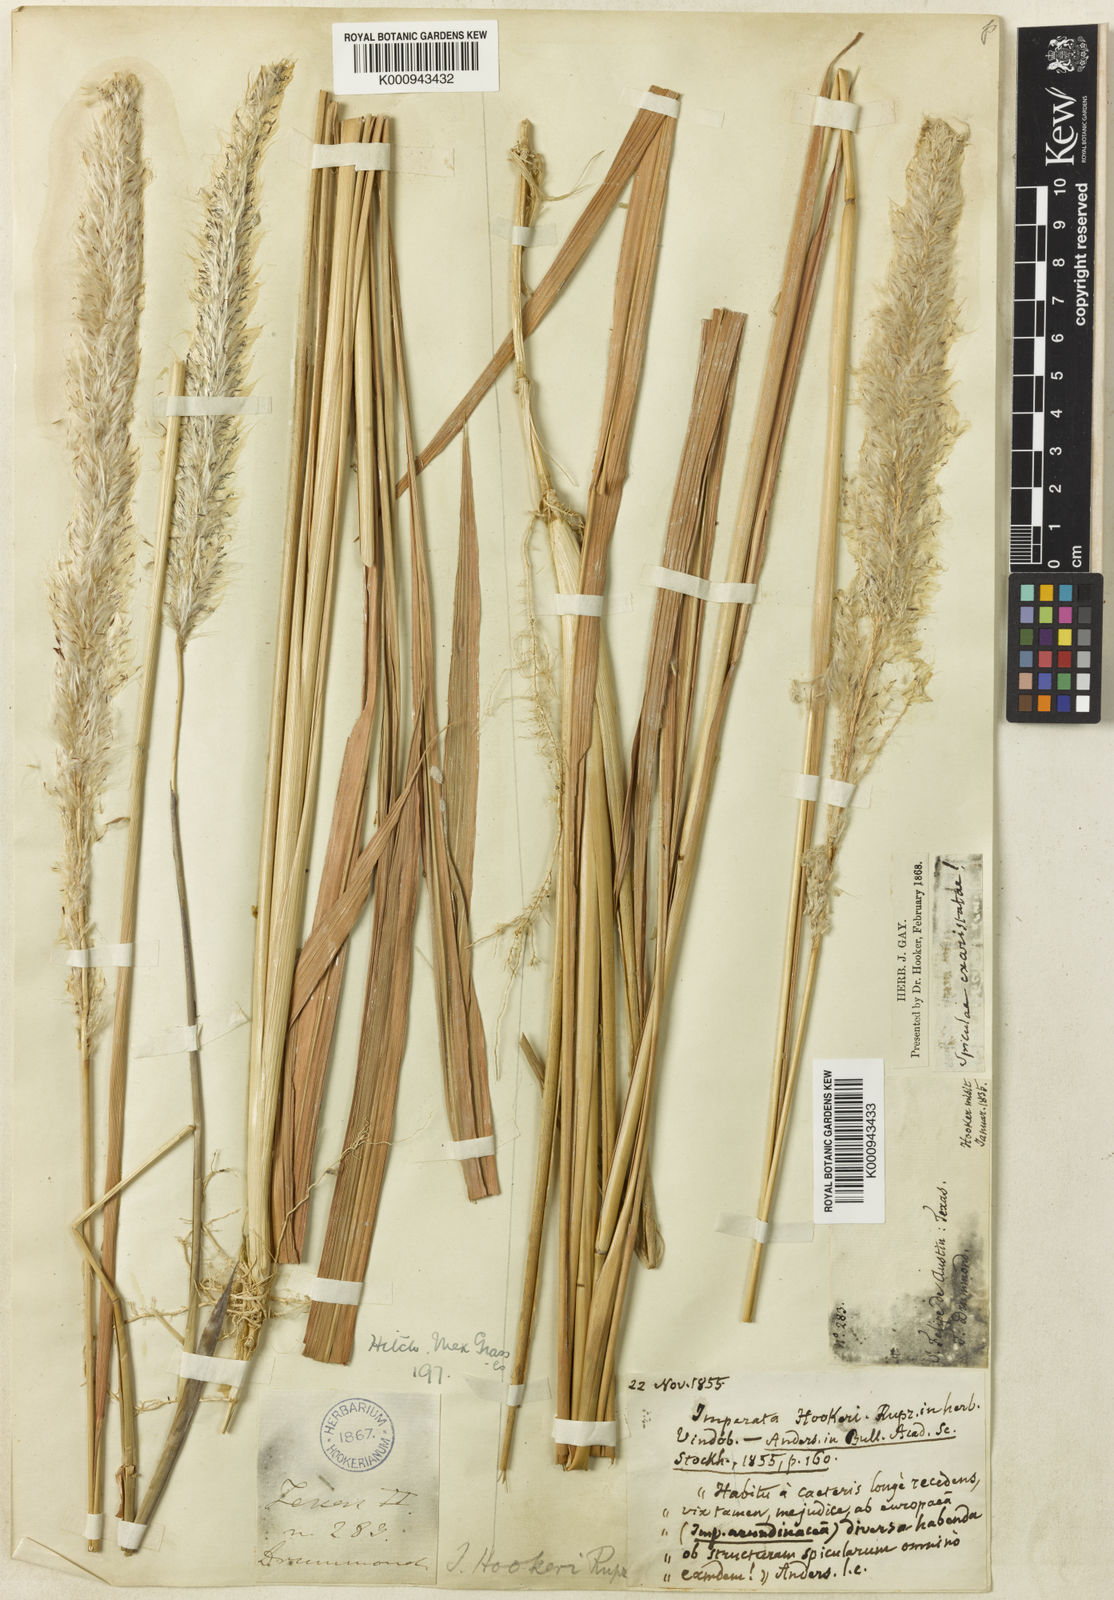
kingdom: Plantae
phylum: Tracheophyta
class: Liliopsida
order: Poales
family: Poaceae
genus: Imperata
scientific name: Imperata brevifolia
